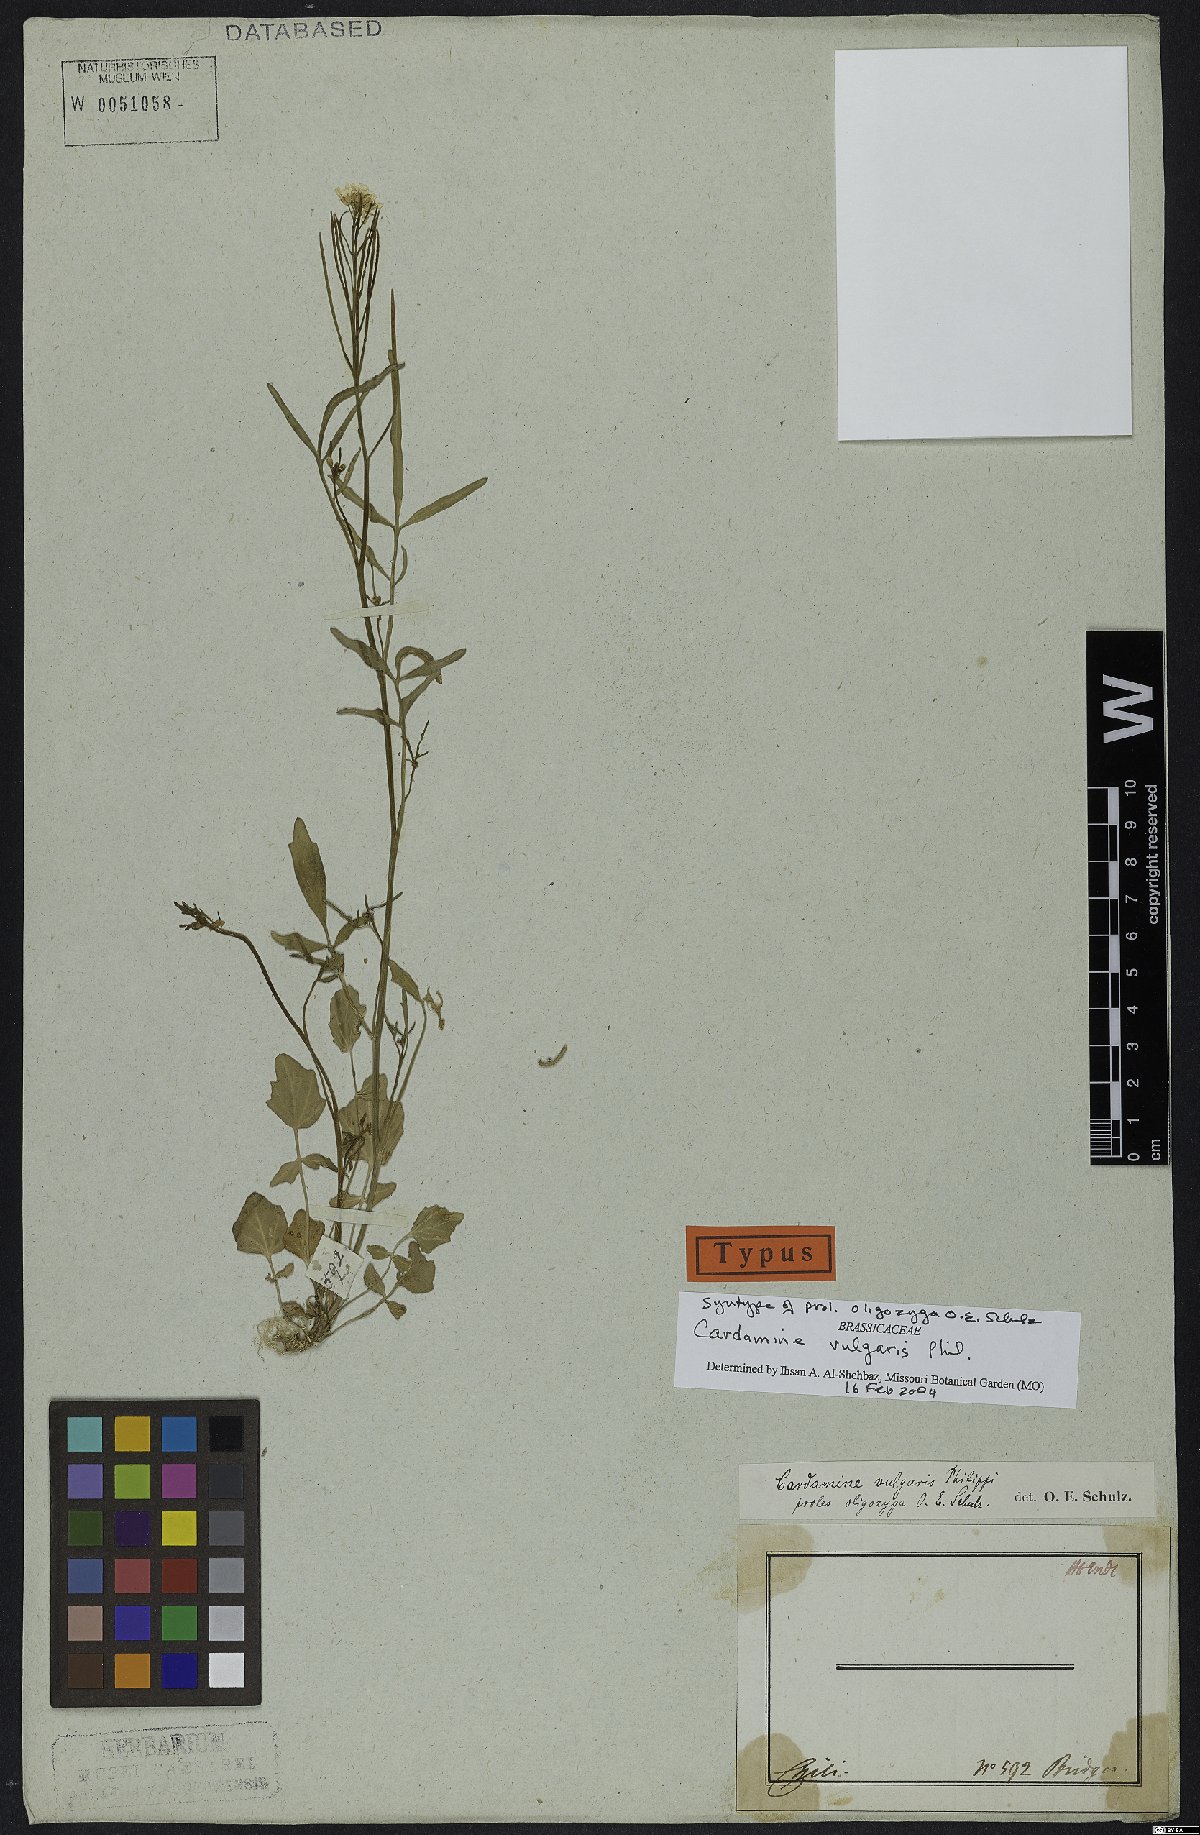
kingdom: Plantae
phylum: Tracheophyta
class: Magnoliopsida
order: Brassicales
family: Brassicaceae
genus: Cardamine
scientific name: Cardamine vulgaris
